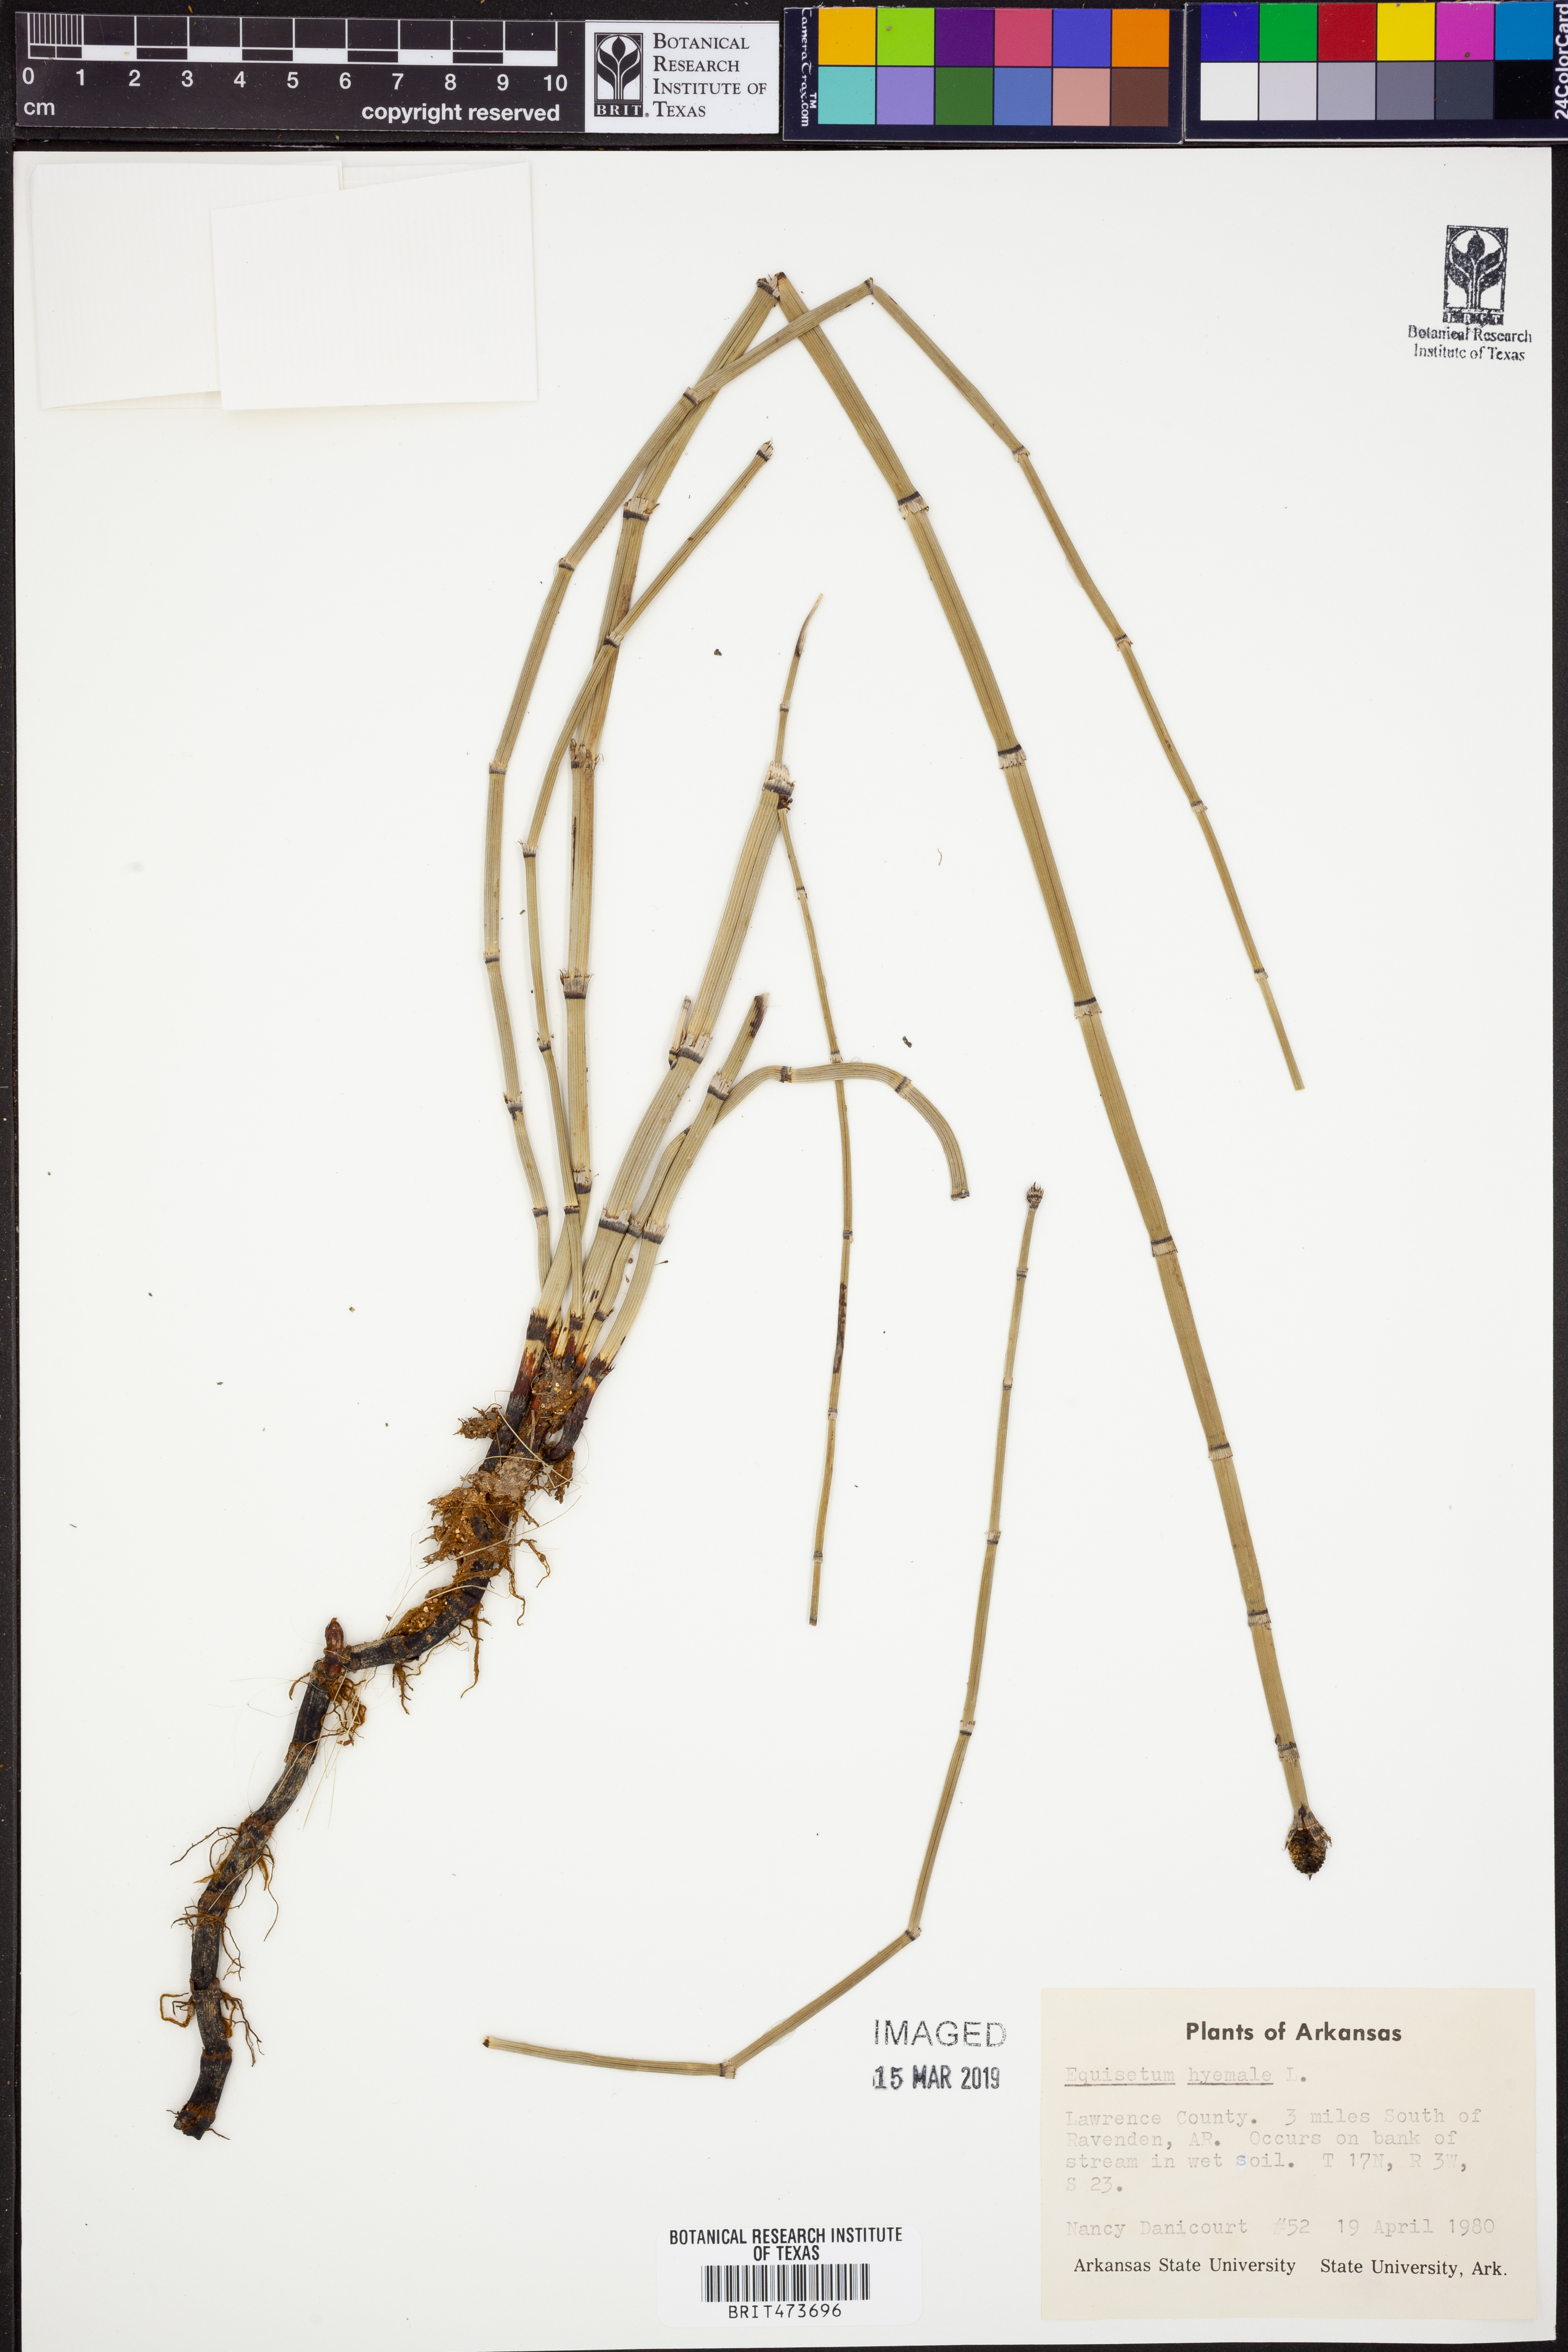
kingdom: Plantae
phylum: Tracheophyta
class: Polypodiopsida
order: Equisetales
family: Equisetaceae
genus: Equisetum
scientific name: Equisetum hyemale
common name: Rough horsetail
